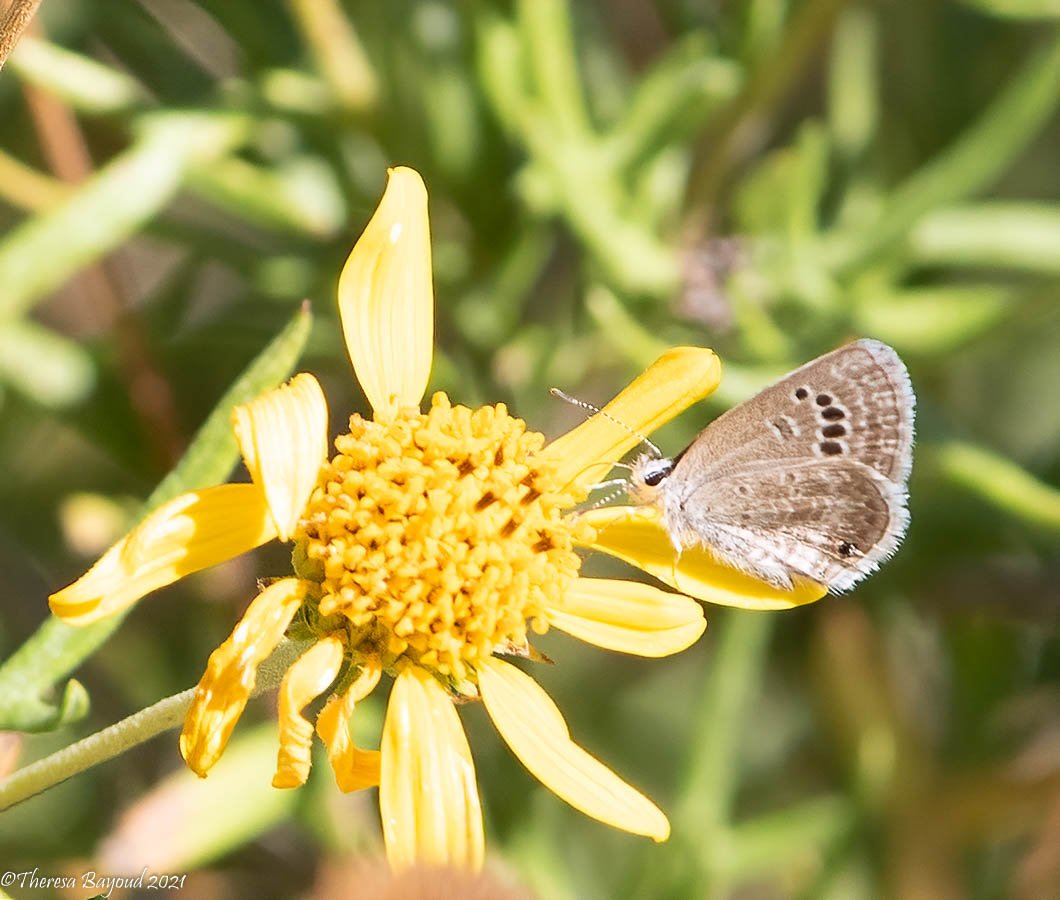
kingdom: Animalia
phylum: Arthropoda
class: Insecta
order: Lepidoptera
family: Lycaenidae
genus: Echinargus
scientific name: Echinargus isola
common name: Reakirt's Blue
